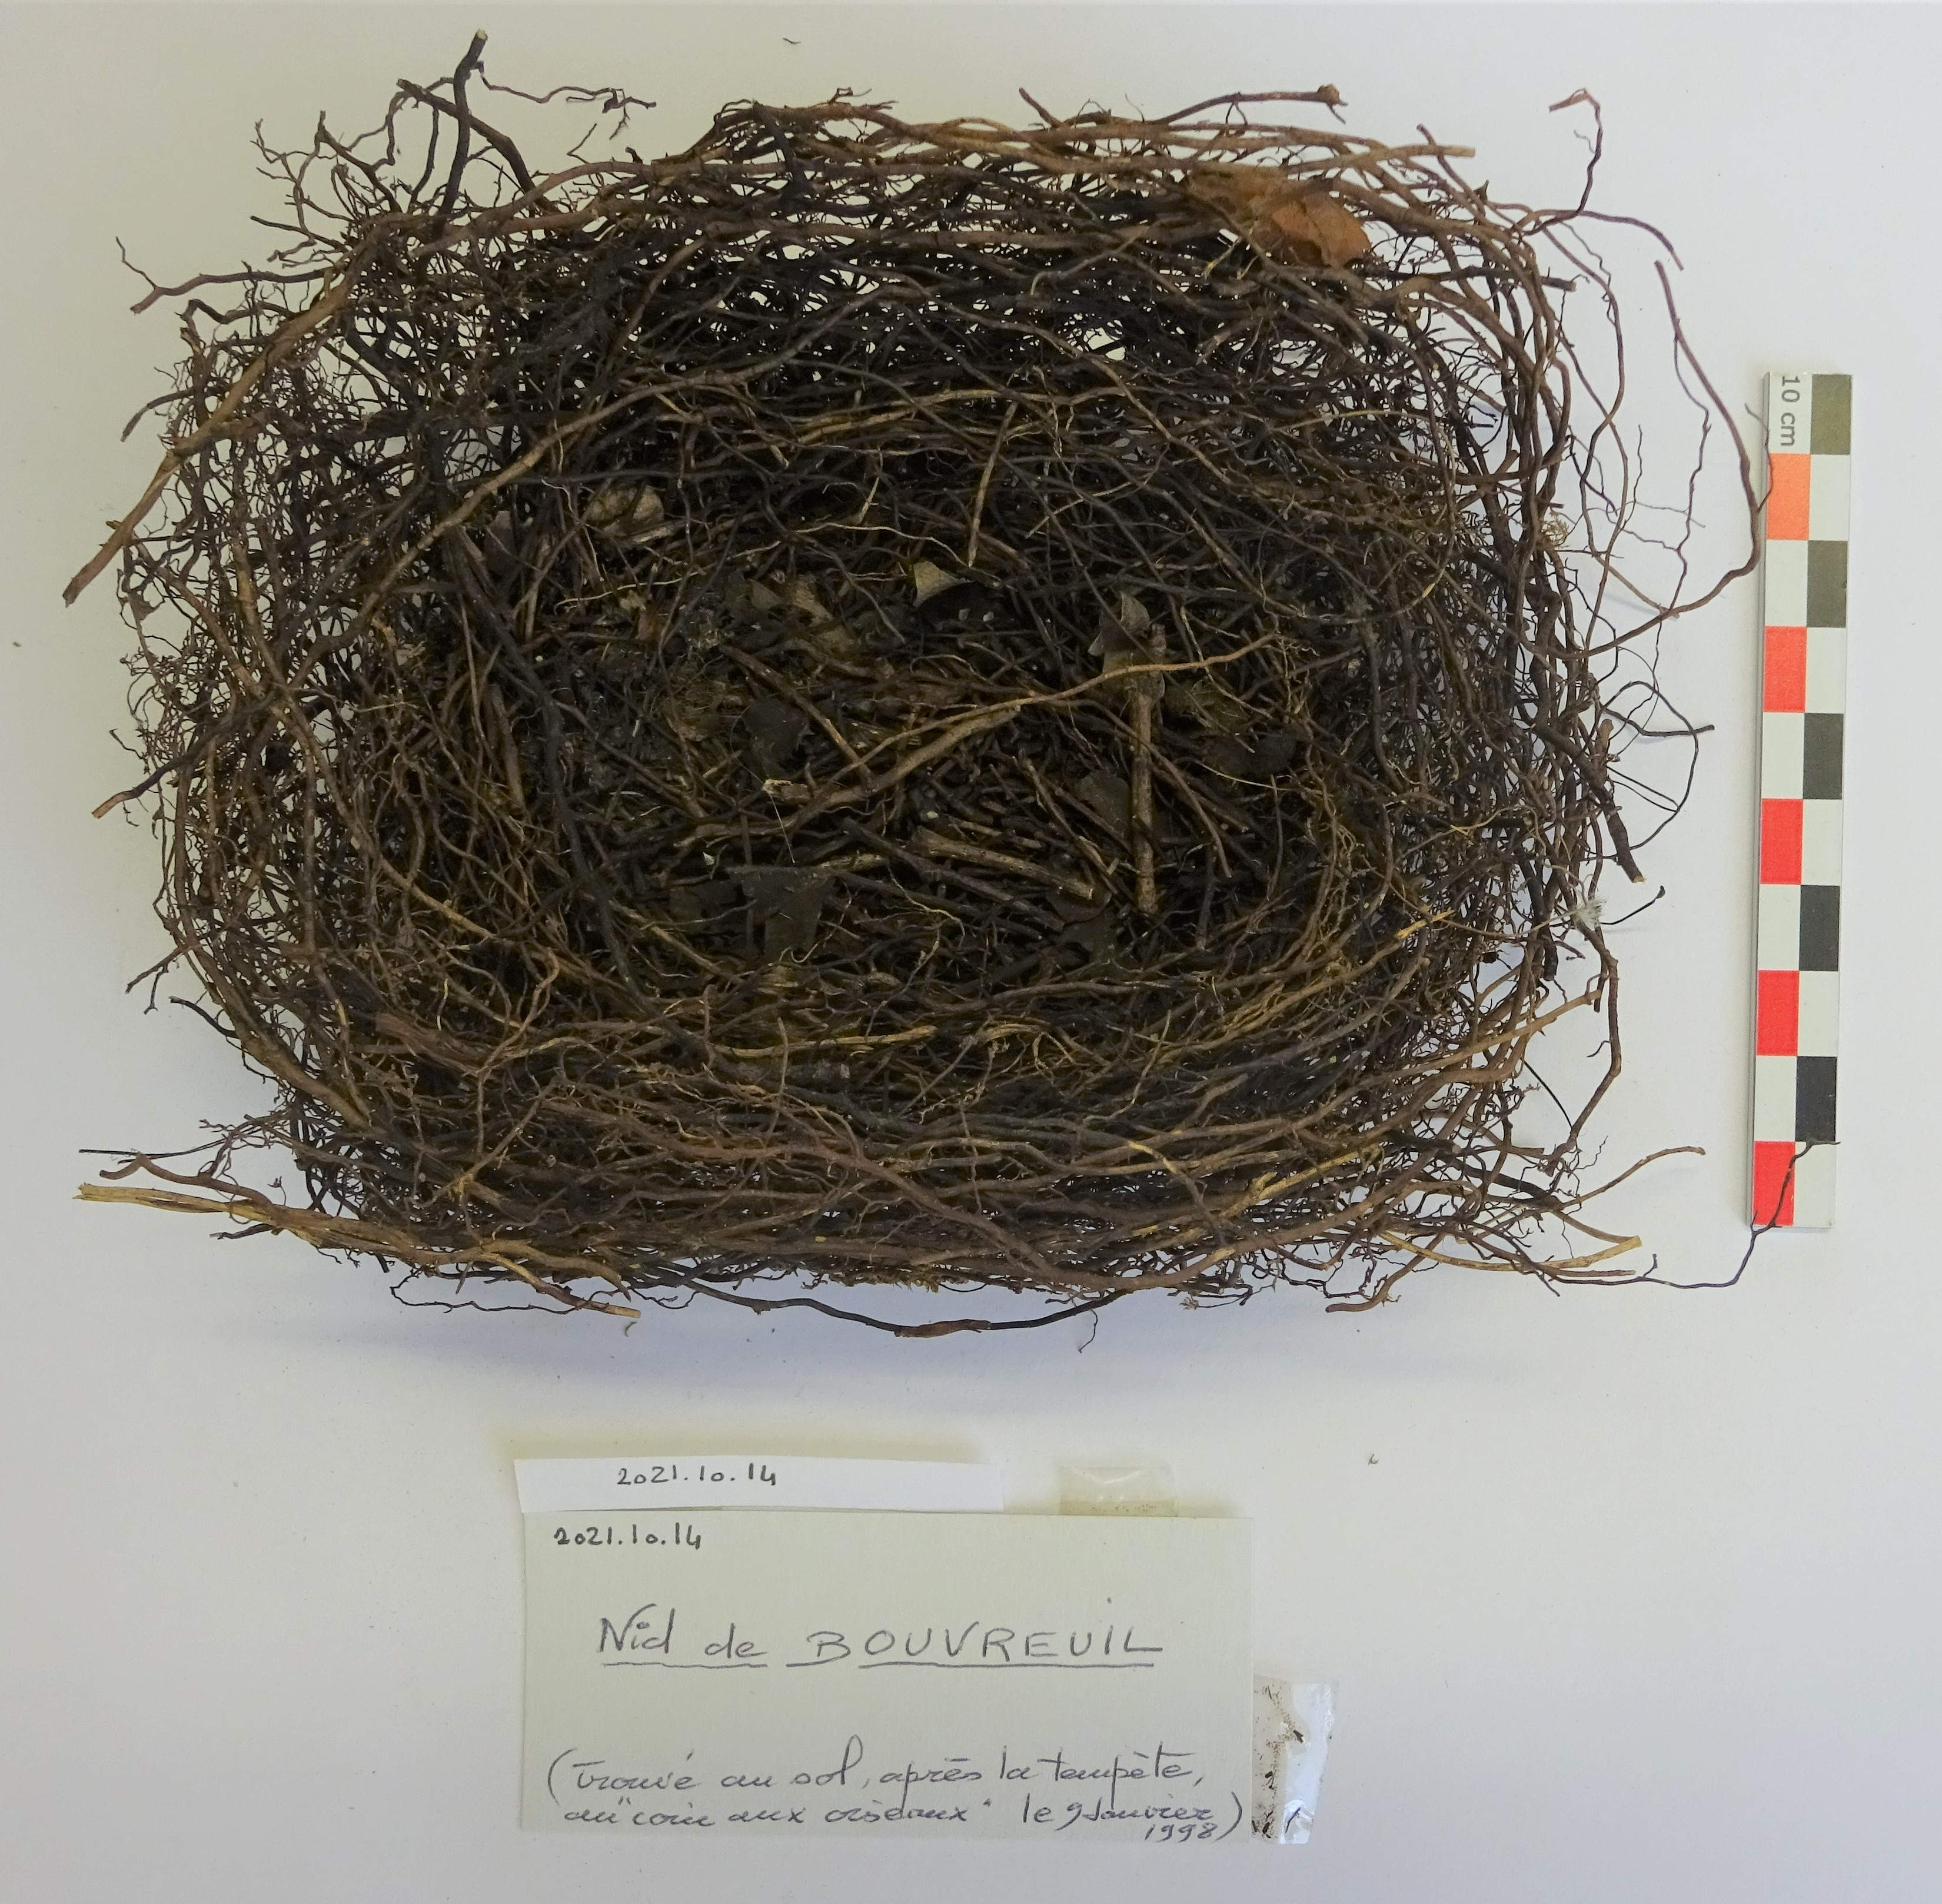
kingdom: Animalia
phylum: Chordata
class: Aves
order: Passeriformes
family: Fringillidae
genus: Pyrrhula
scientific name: Pyrrhula pyrrhula
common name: Eurasian bullfinch
